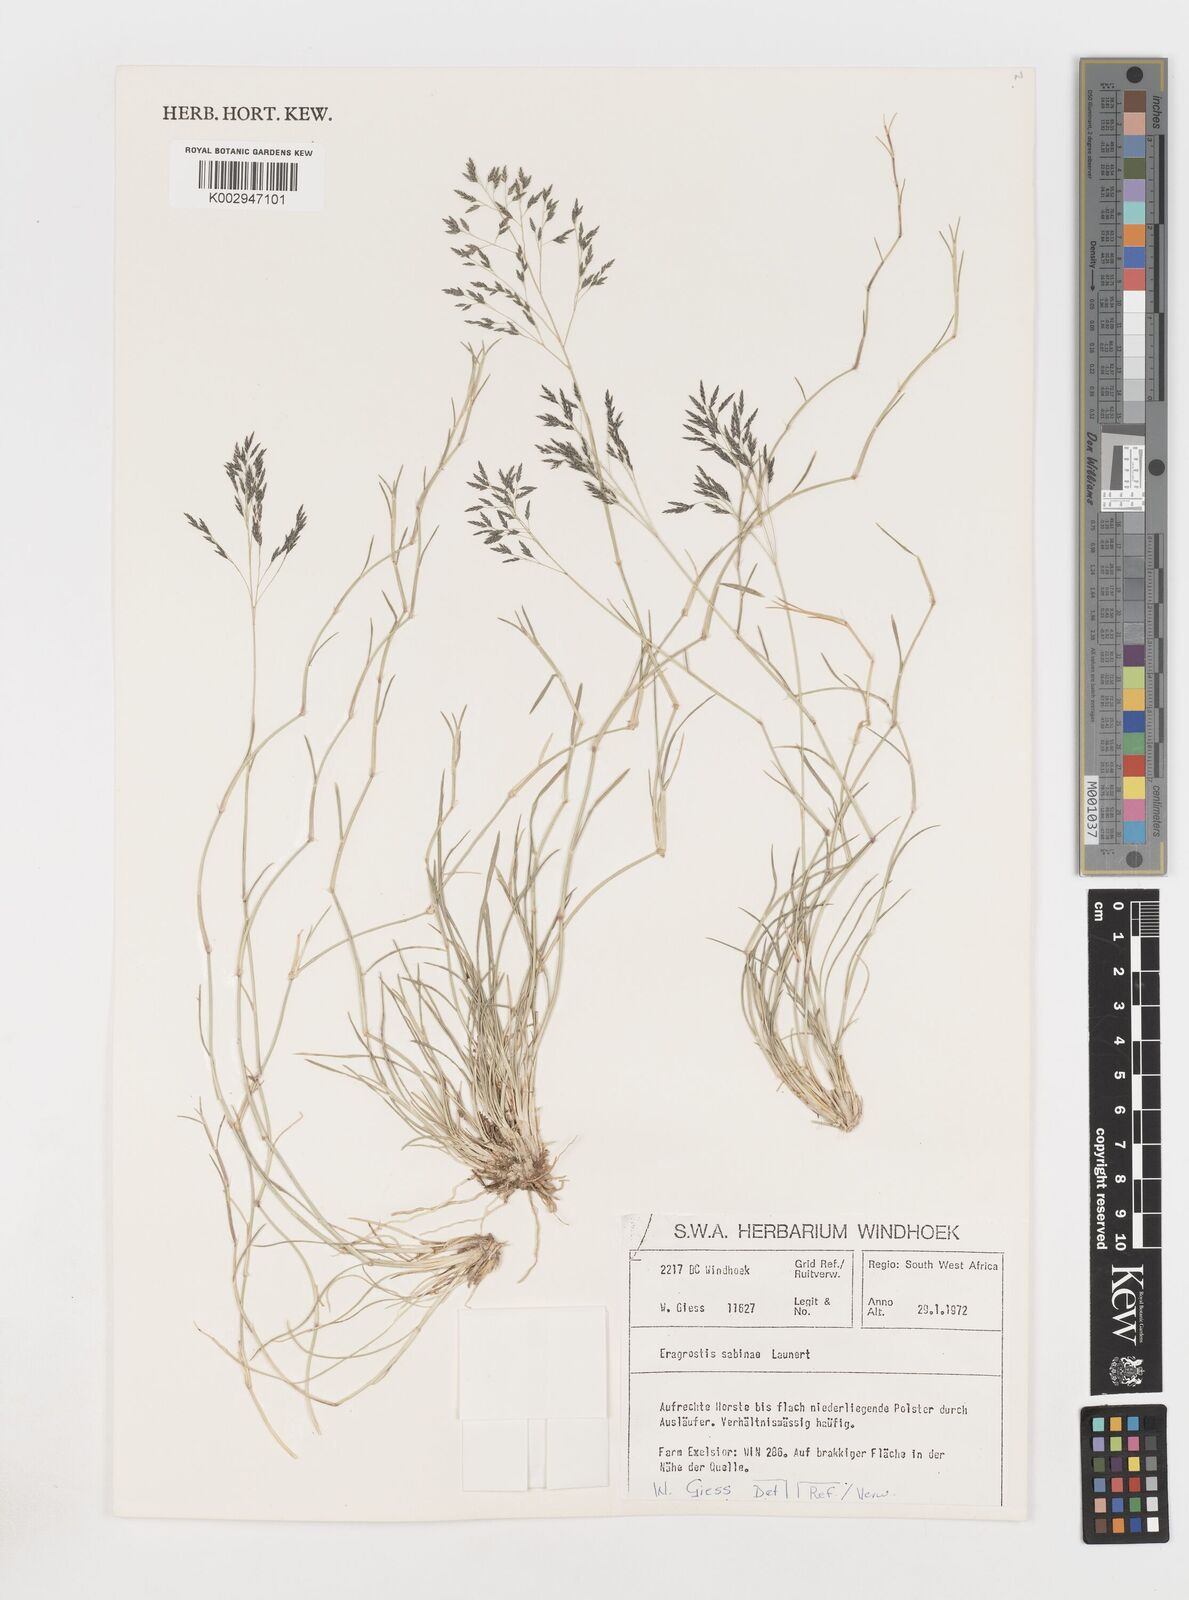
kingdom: Plantae
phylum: Tracheophyta
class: Liliopsida
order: Poales
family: Poaceae
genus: Eragrostis
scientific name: Eragrostis sabinae
